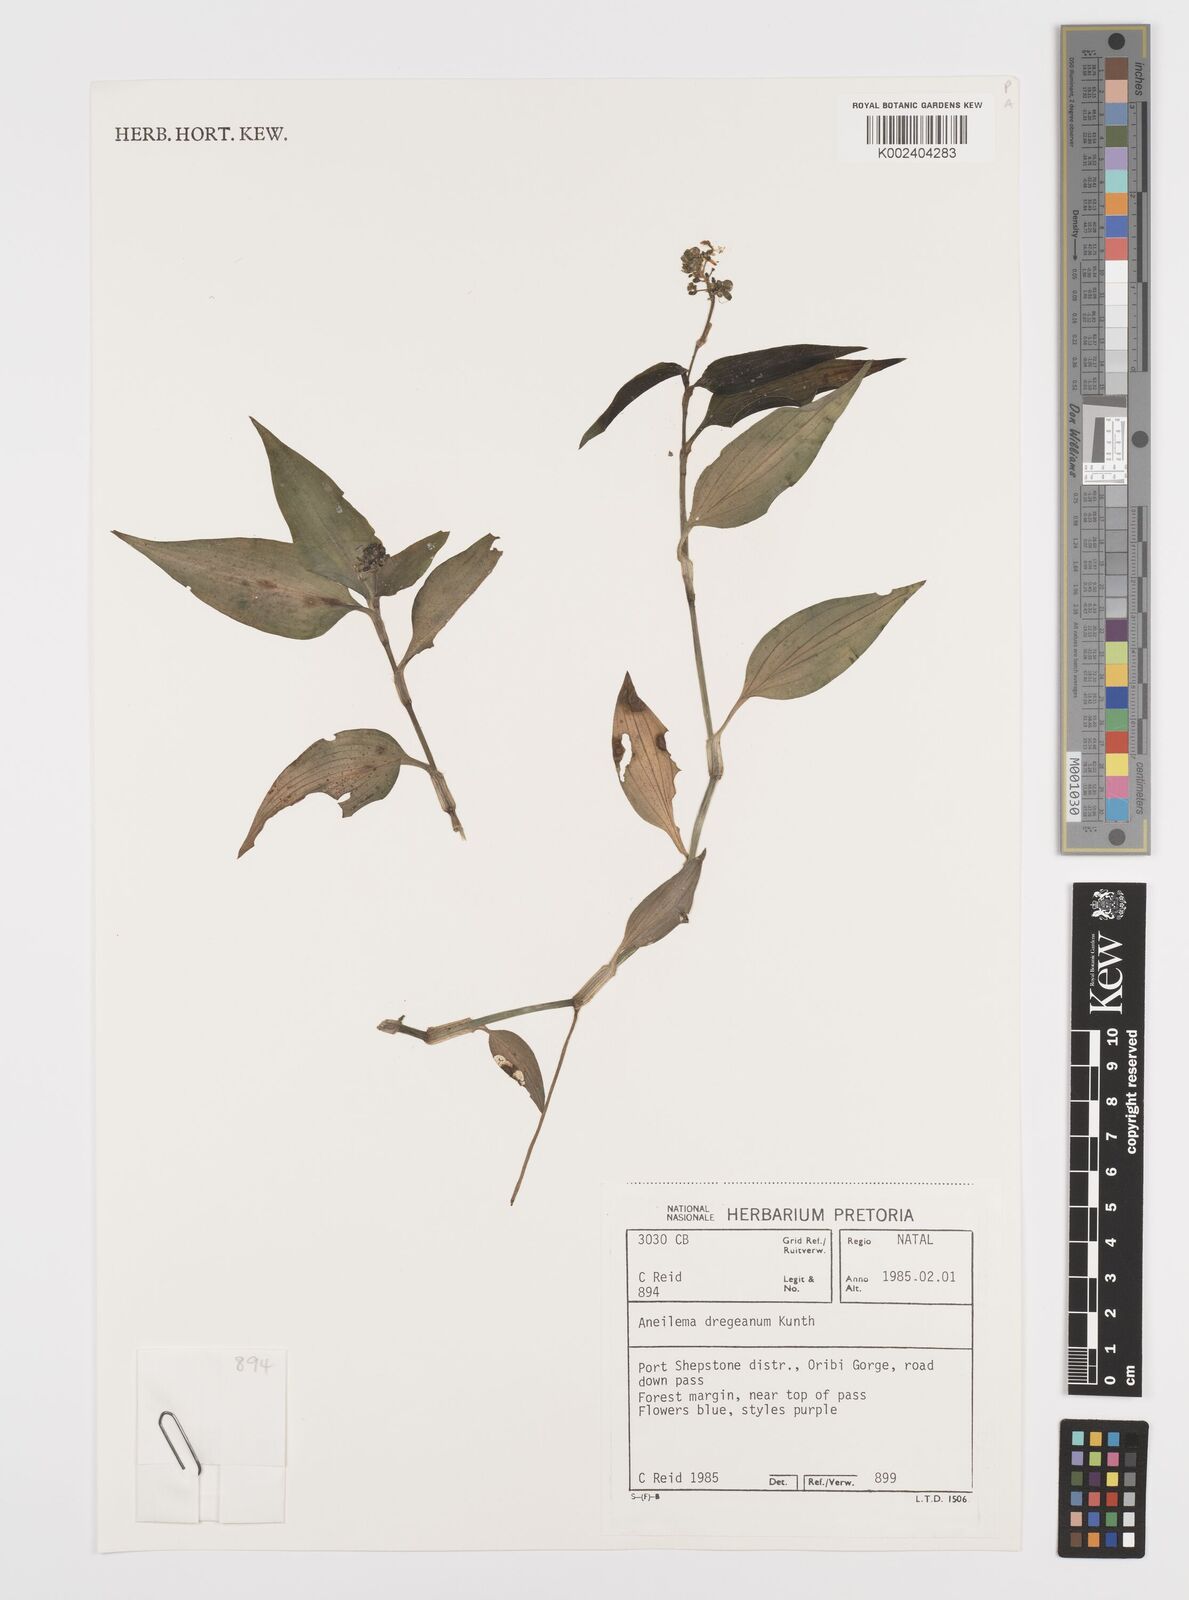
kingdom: Plantae
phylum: Tracheophyta
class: Liliopsida
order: Commelinales
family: Commelinaceae
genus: Aneilema
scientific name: Aneilema dregeanum
